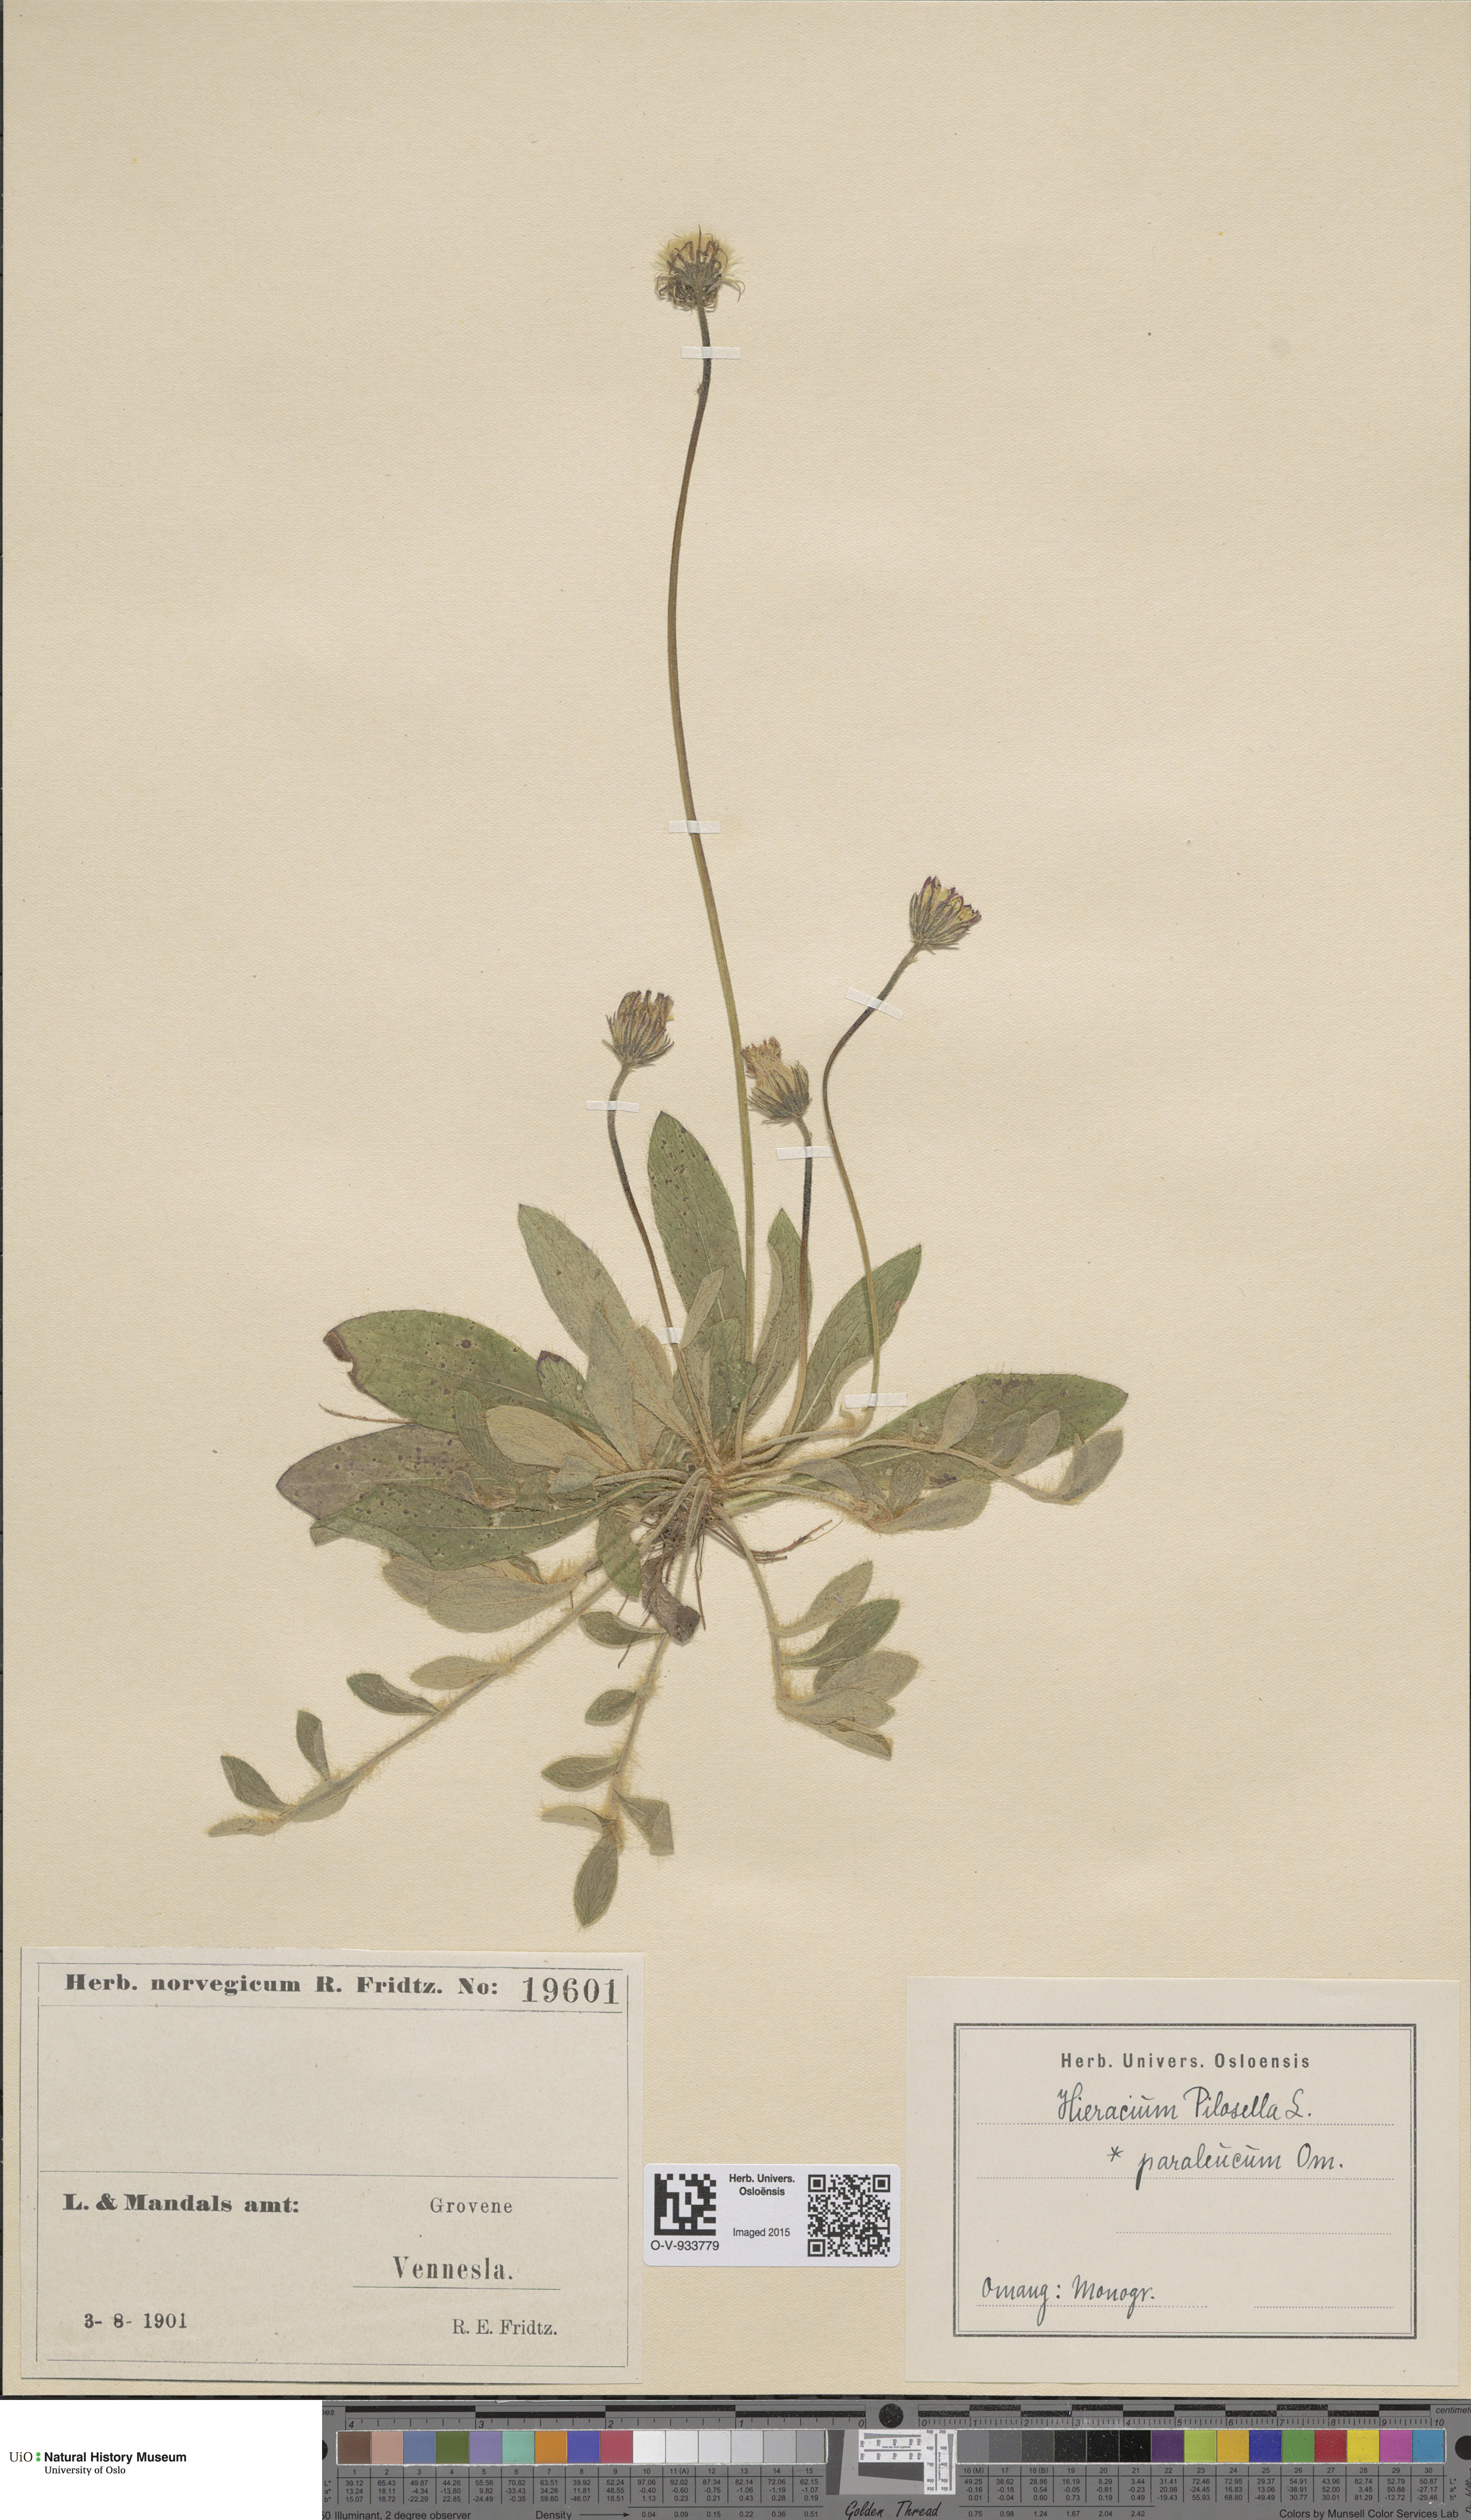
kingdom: Plantae
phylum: Tracheophyta
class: Magnoliopsida
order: Asterales
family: Asteraceae
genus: Pilosella
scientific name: Pilosella officinarum
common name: Mouse-ear hawkweed
